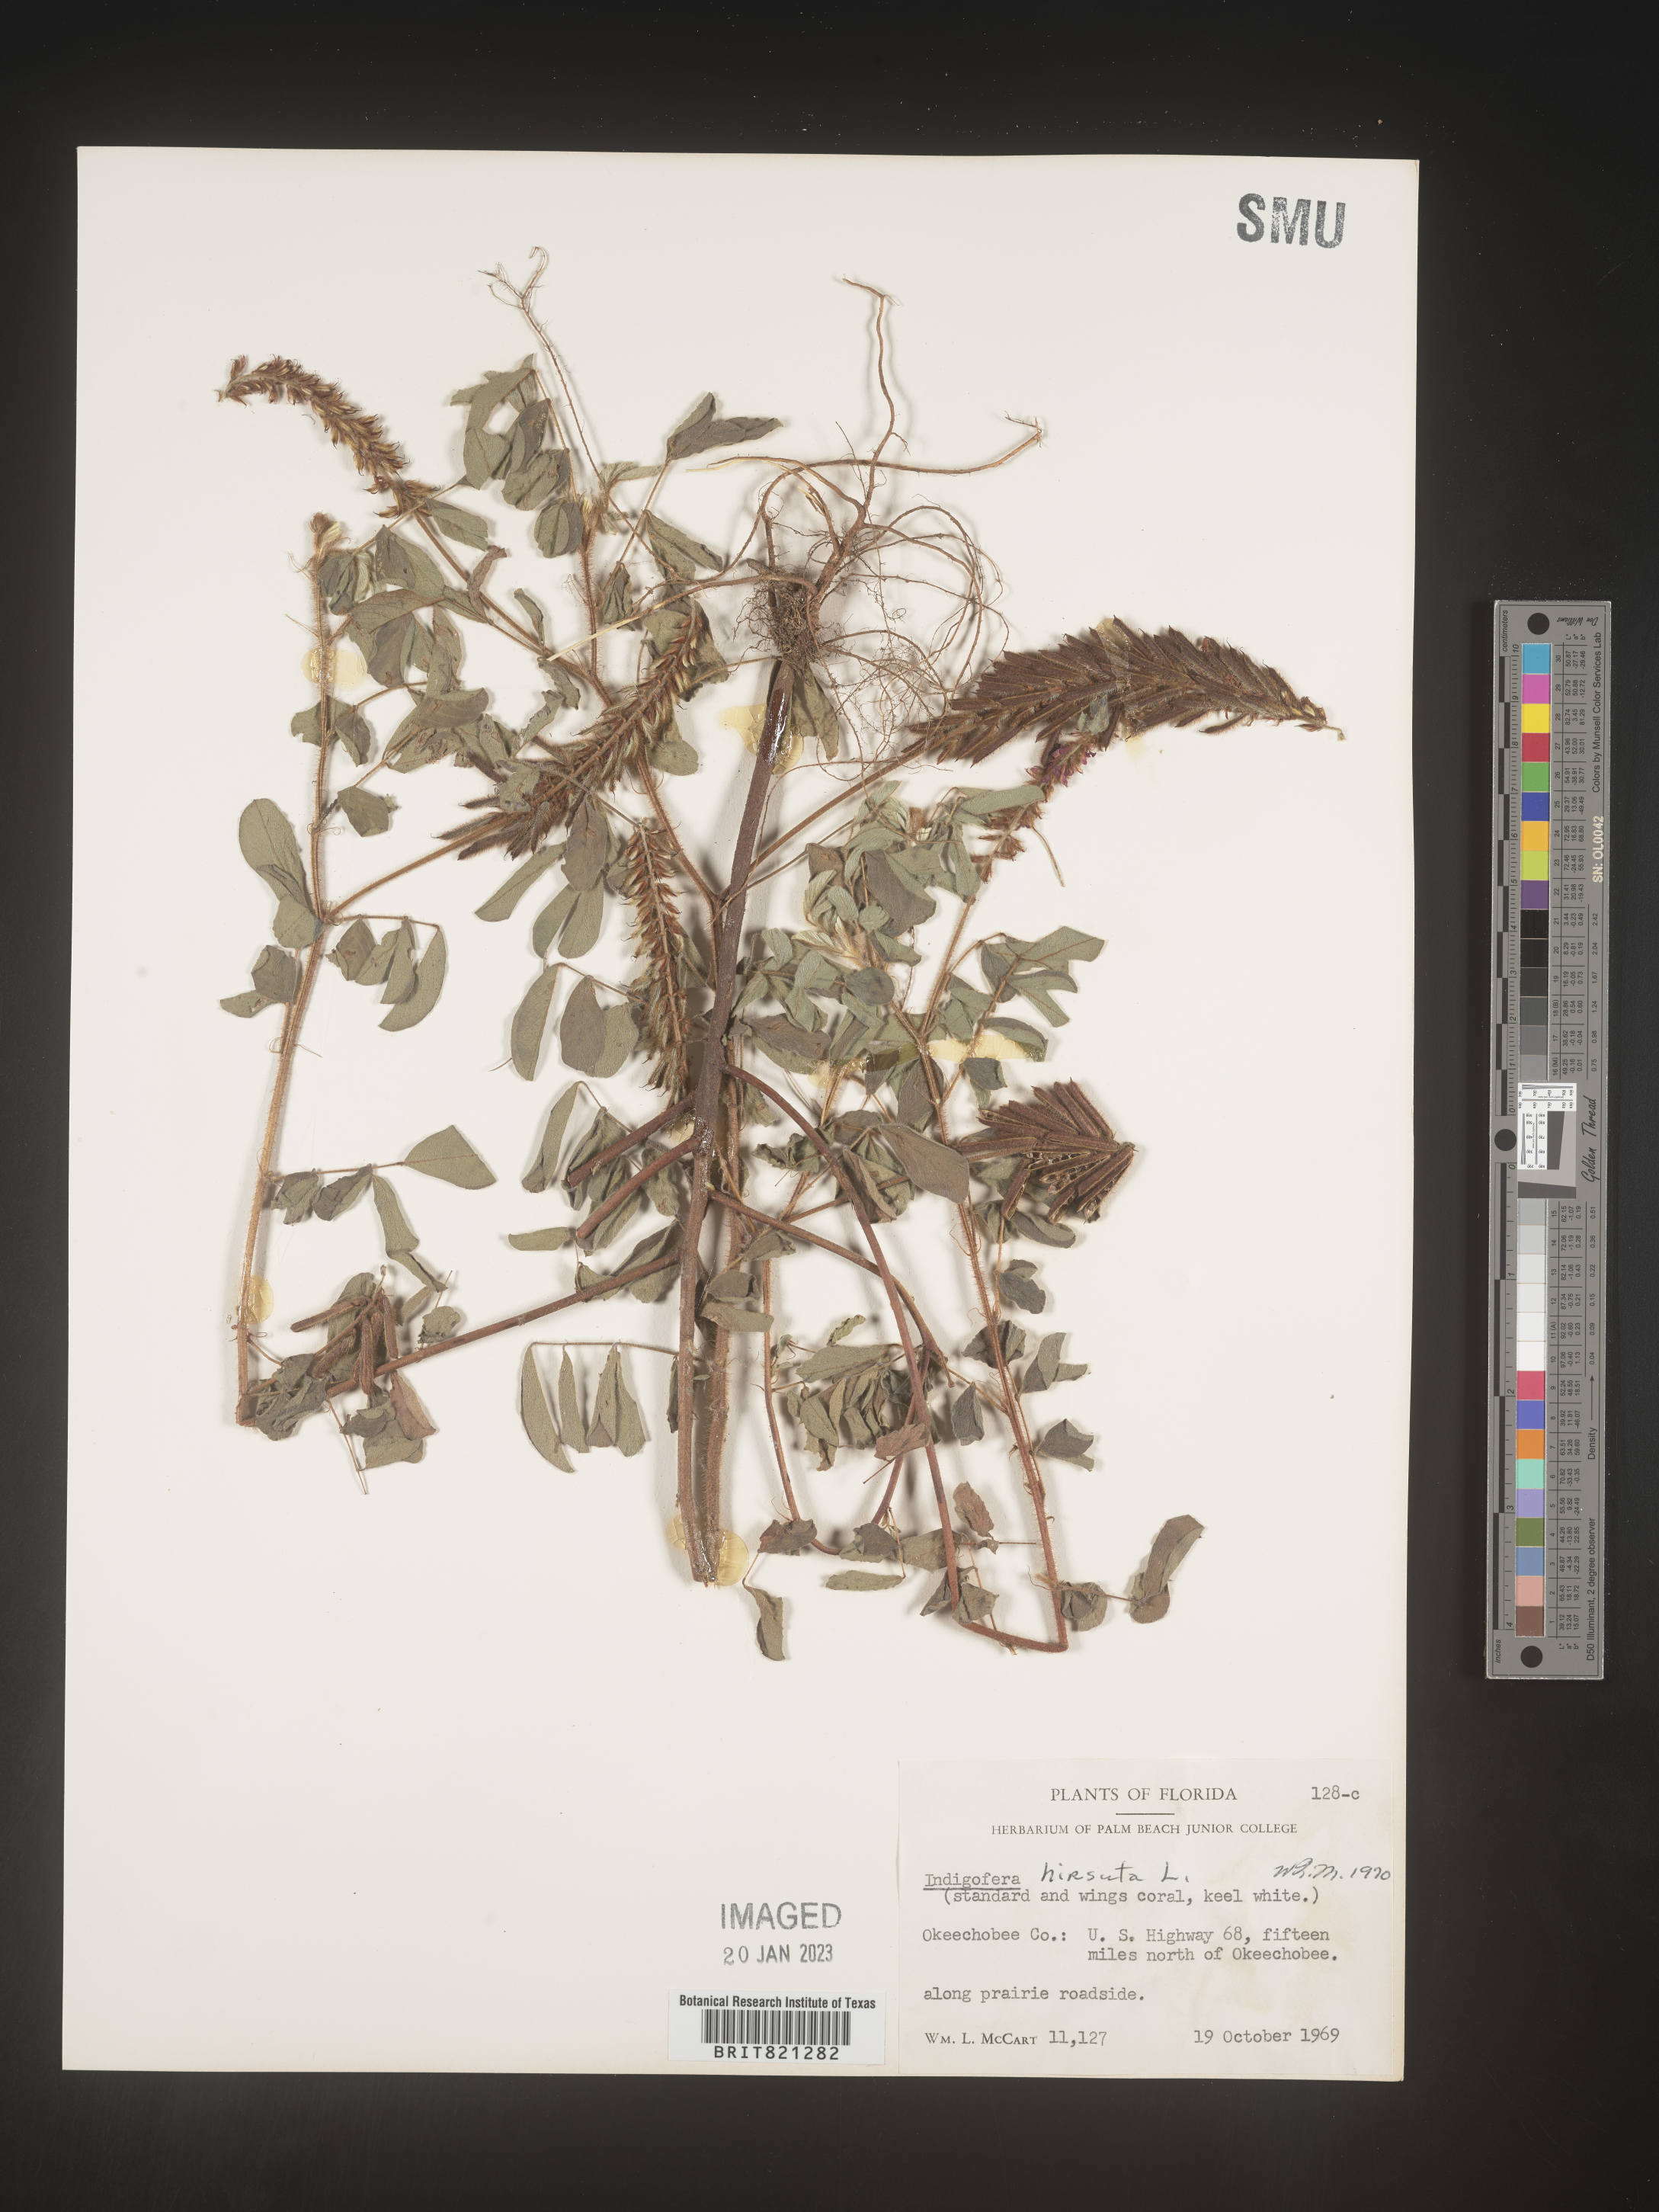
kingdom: Plantae
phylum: Tracheophyta
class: Magnoliopsida
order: Fabales
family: Fabaceae
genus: Indigofera
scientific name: Indigofera
